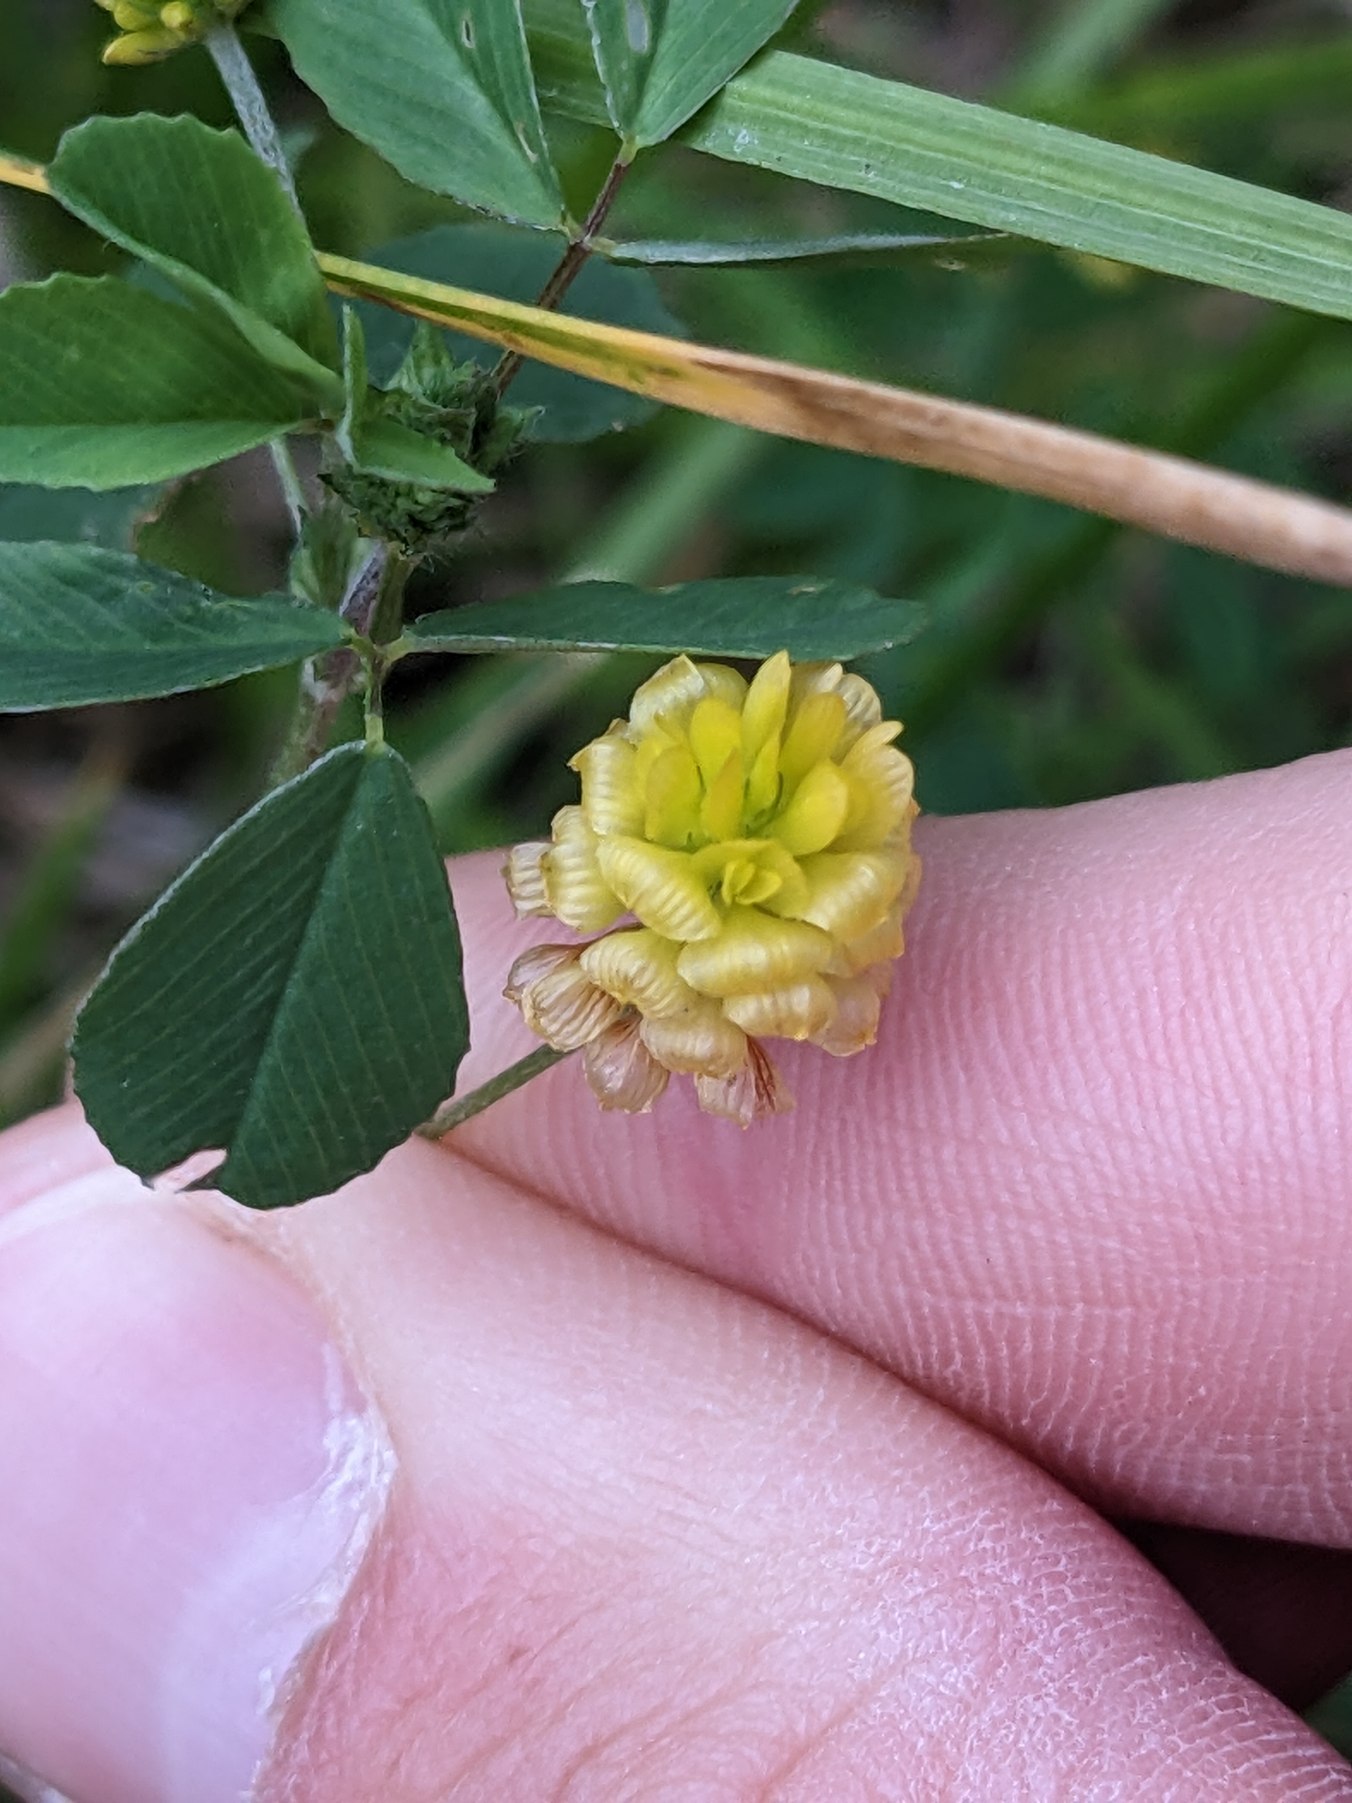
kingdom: Plantae
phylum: Tracheophyta
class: Magnoliopsida
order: Fabales
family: Fabaceae
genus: Trifolium
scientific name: Trifolium campestre
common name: Gul kløver
